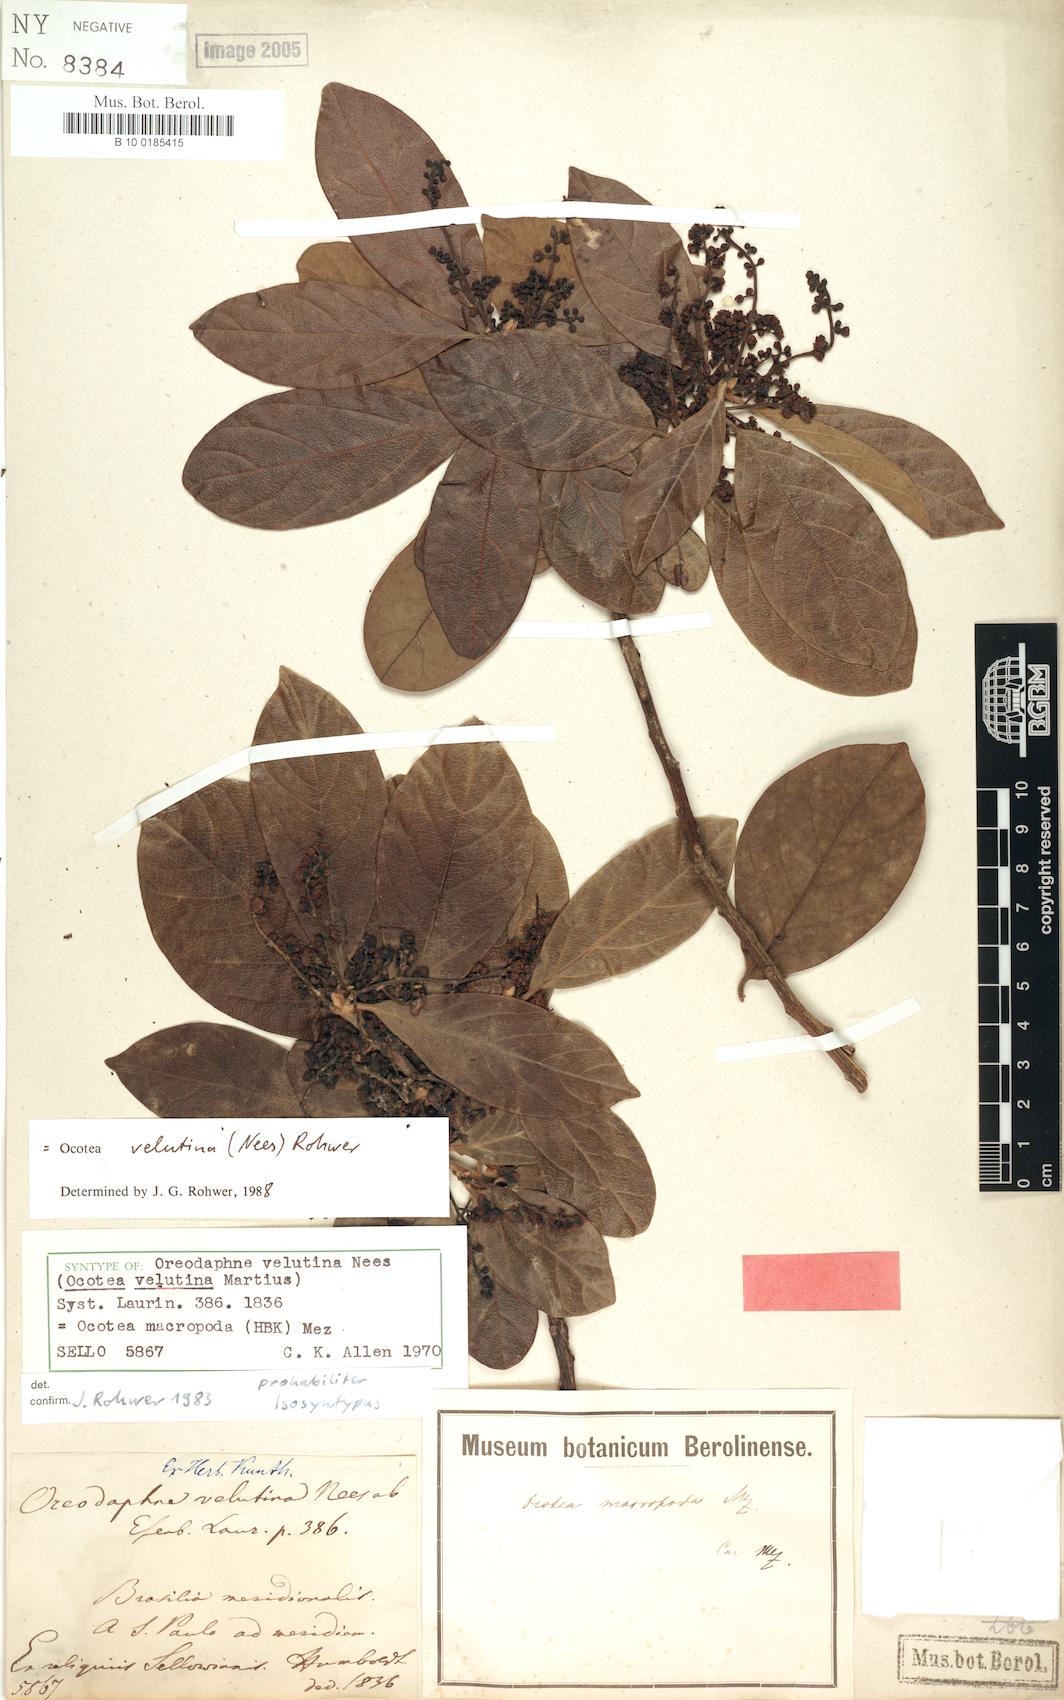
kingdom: Plantae
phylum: Tracheophyta
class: Magnoliopsida
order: Laurales
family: Lauraceae
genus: Andea
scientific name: Andea velutina
